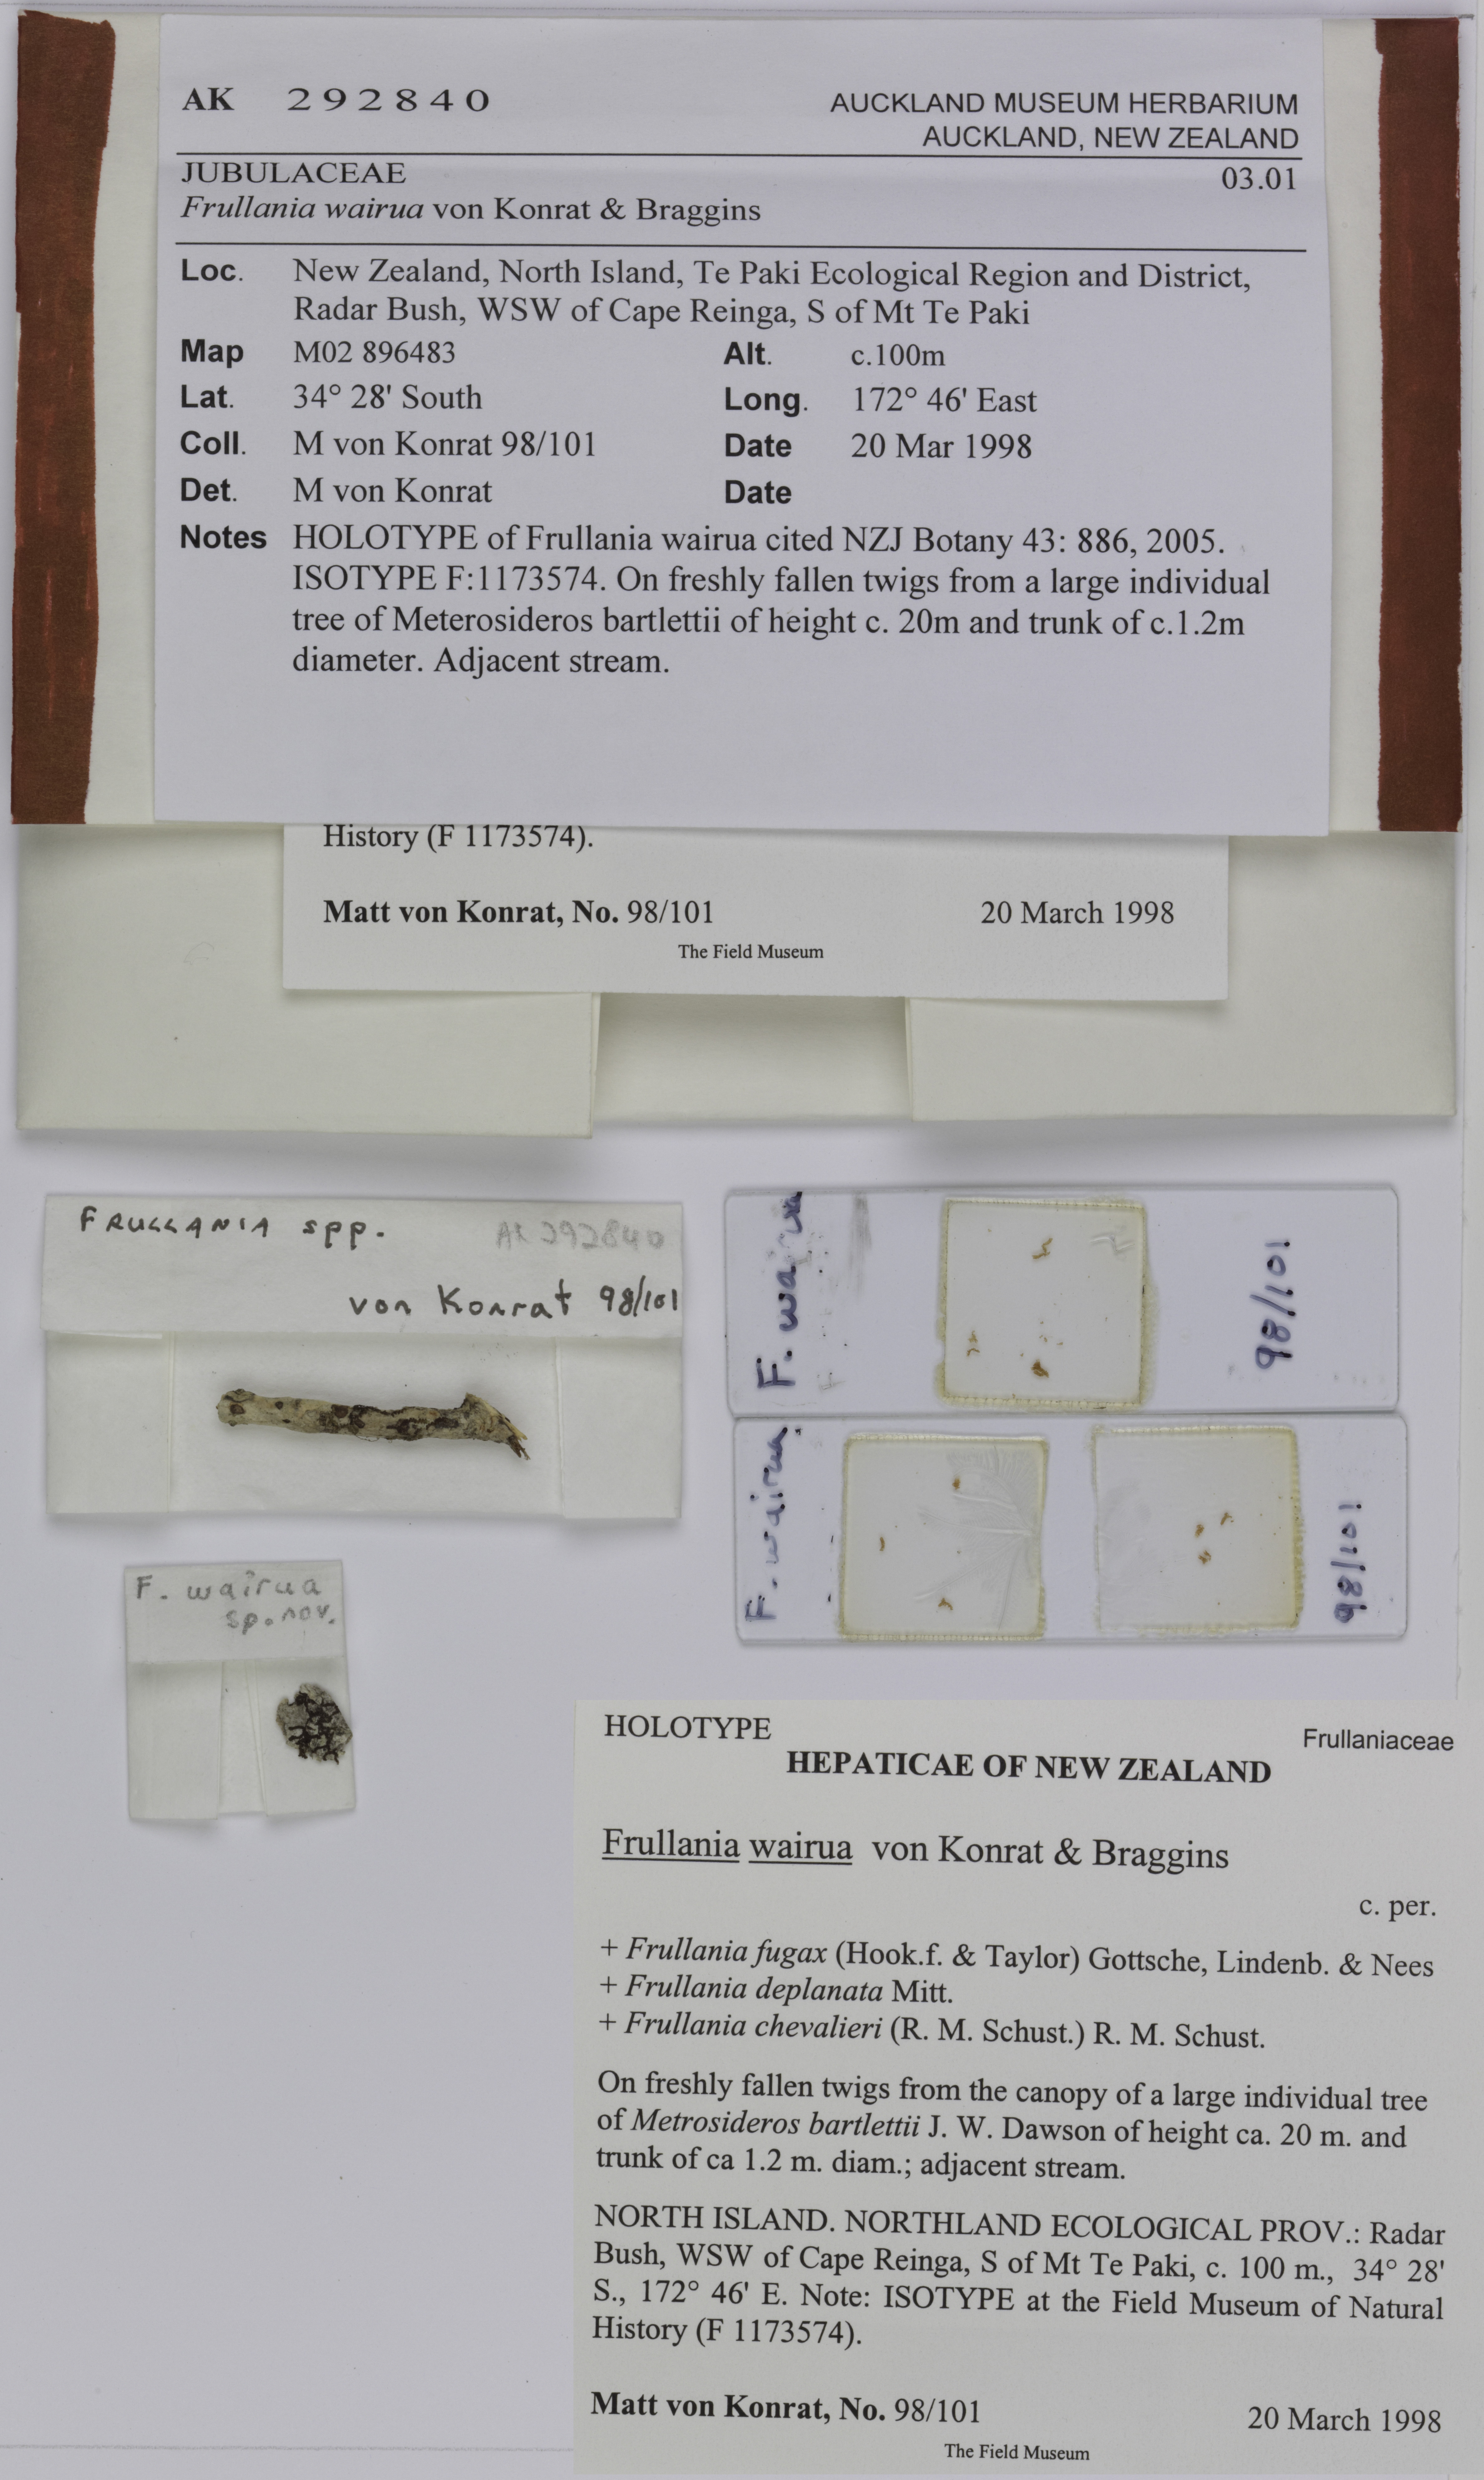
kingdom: Plantae
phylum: Marchantiophyta
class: Jungermanniopsida
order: Porellales
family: Frullaniaceae
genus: Frullania
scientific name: Frullania wairua
